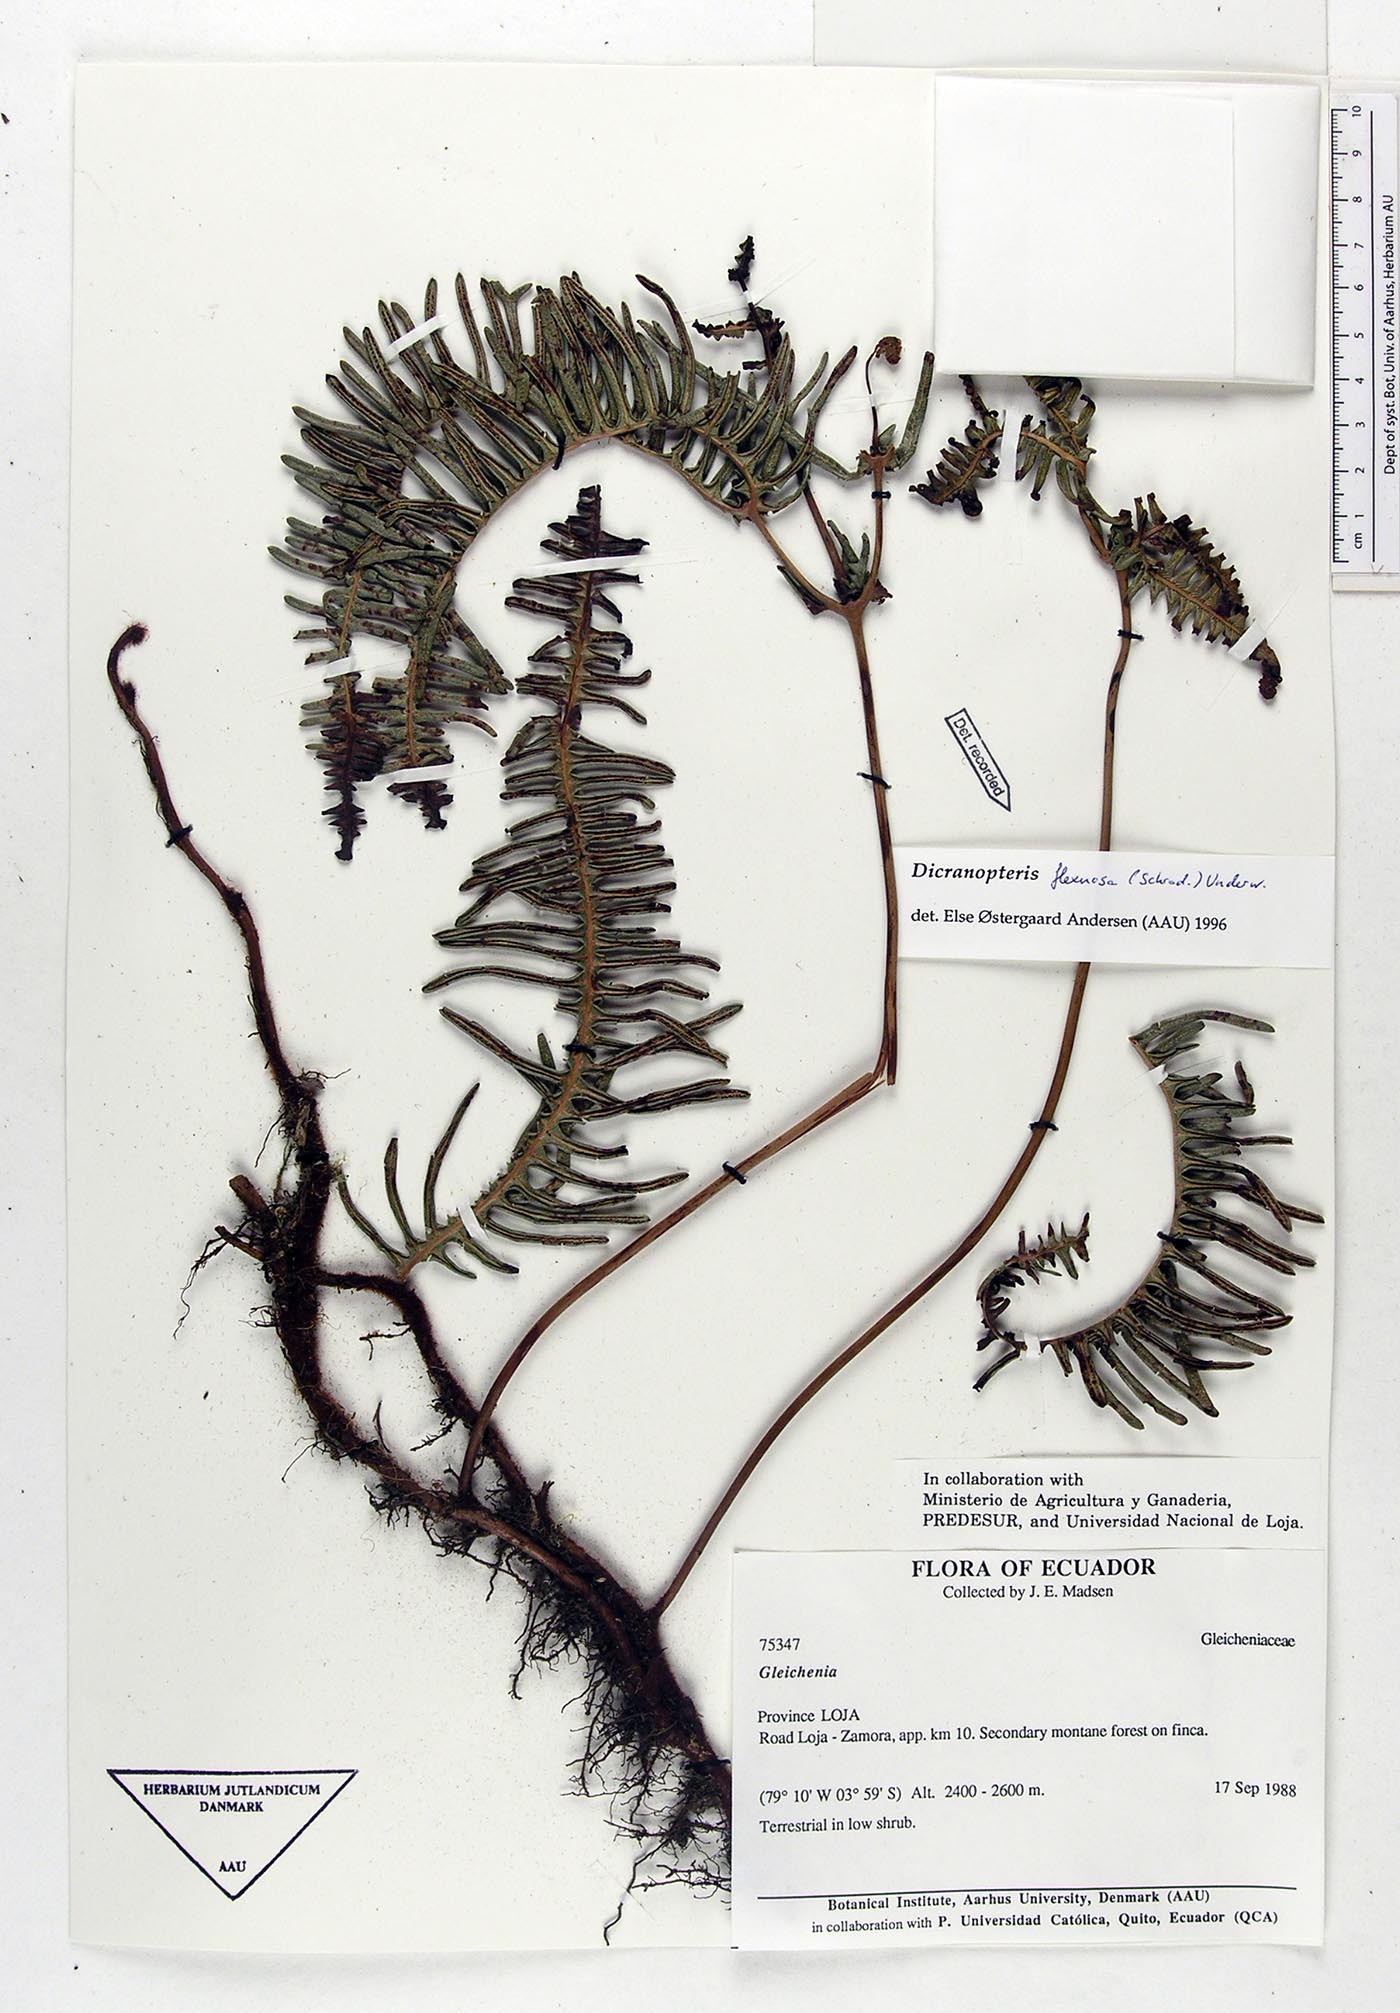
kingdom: Plantae
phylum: Tracheophyta
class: Polypodiopsida
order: Gleicheniales
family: Gleicheniaceae
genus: Dicranopteris
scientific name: Dicranopteris flexuosa
